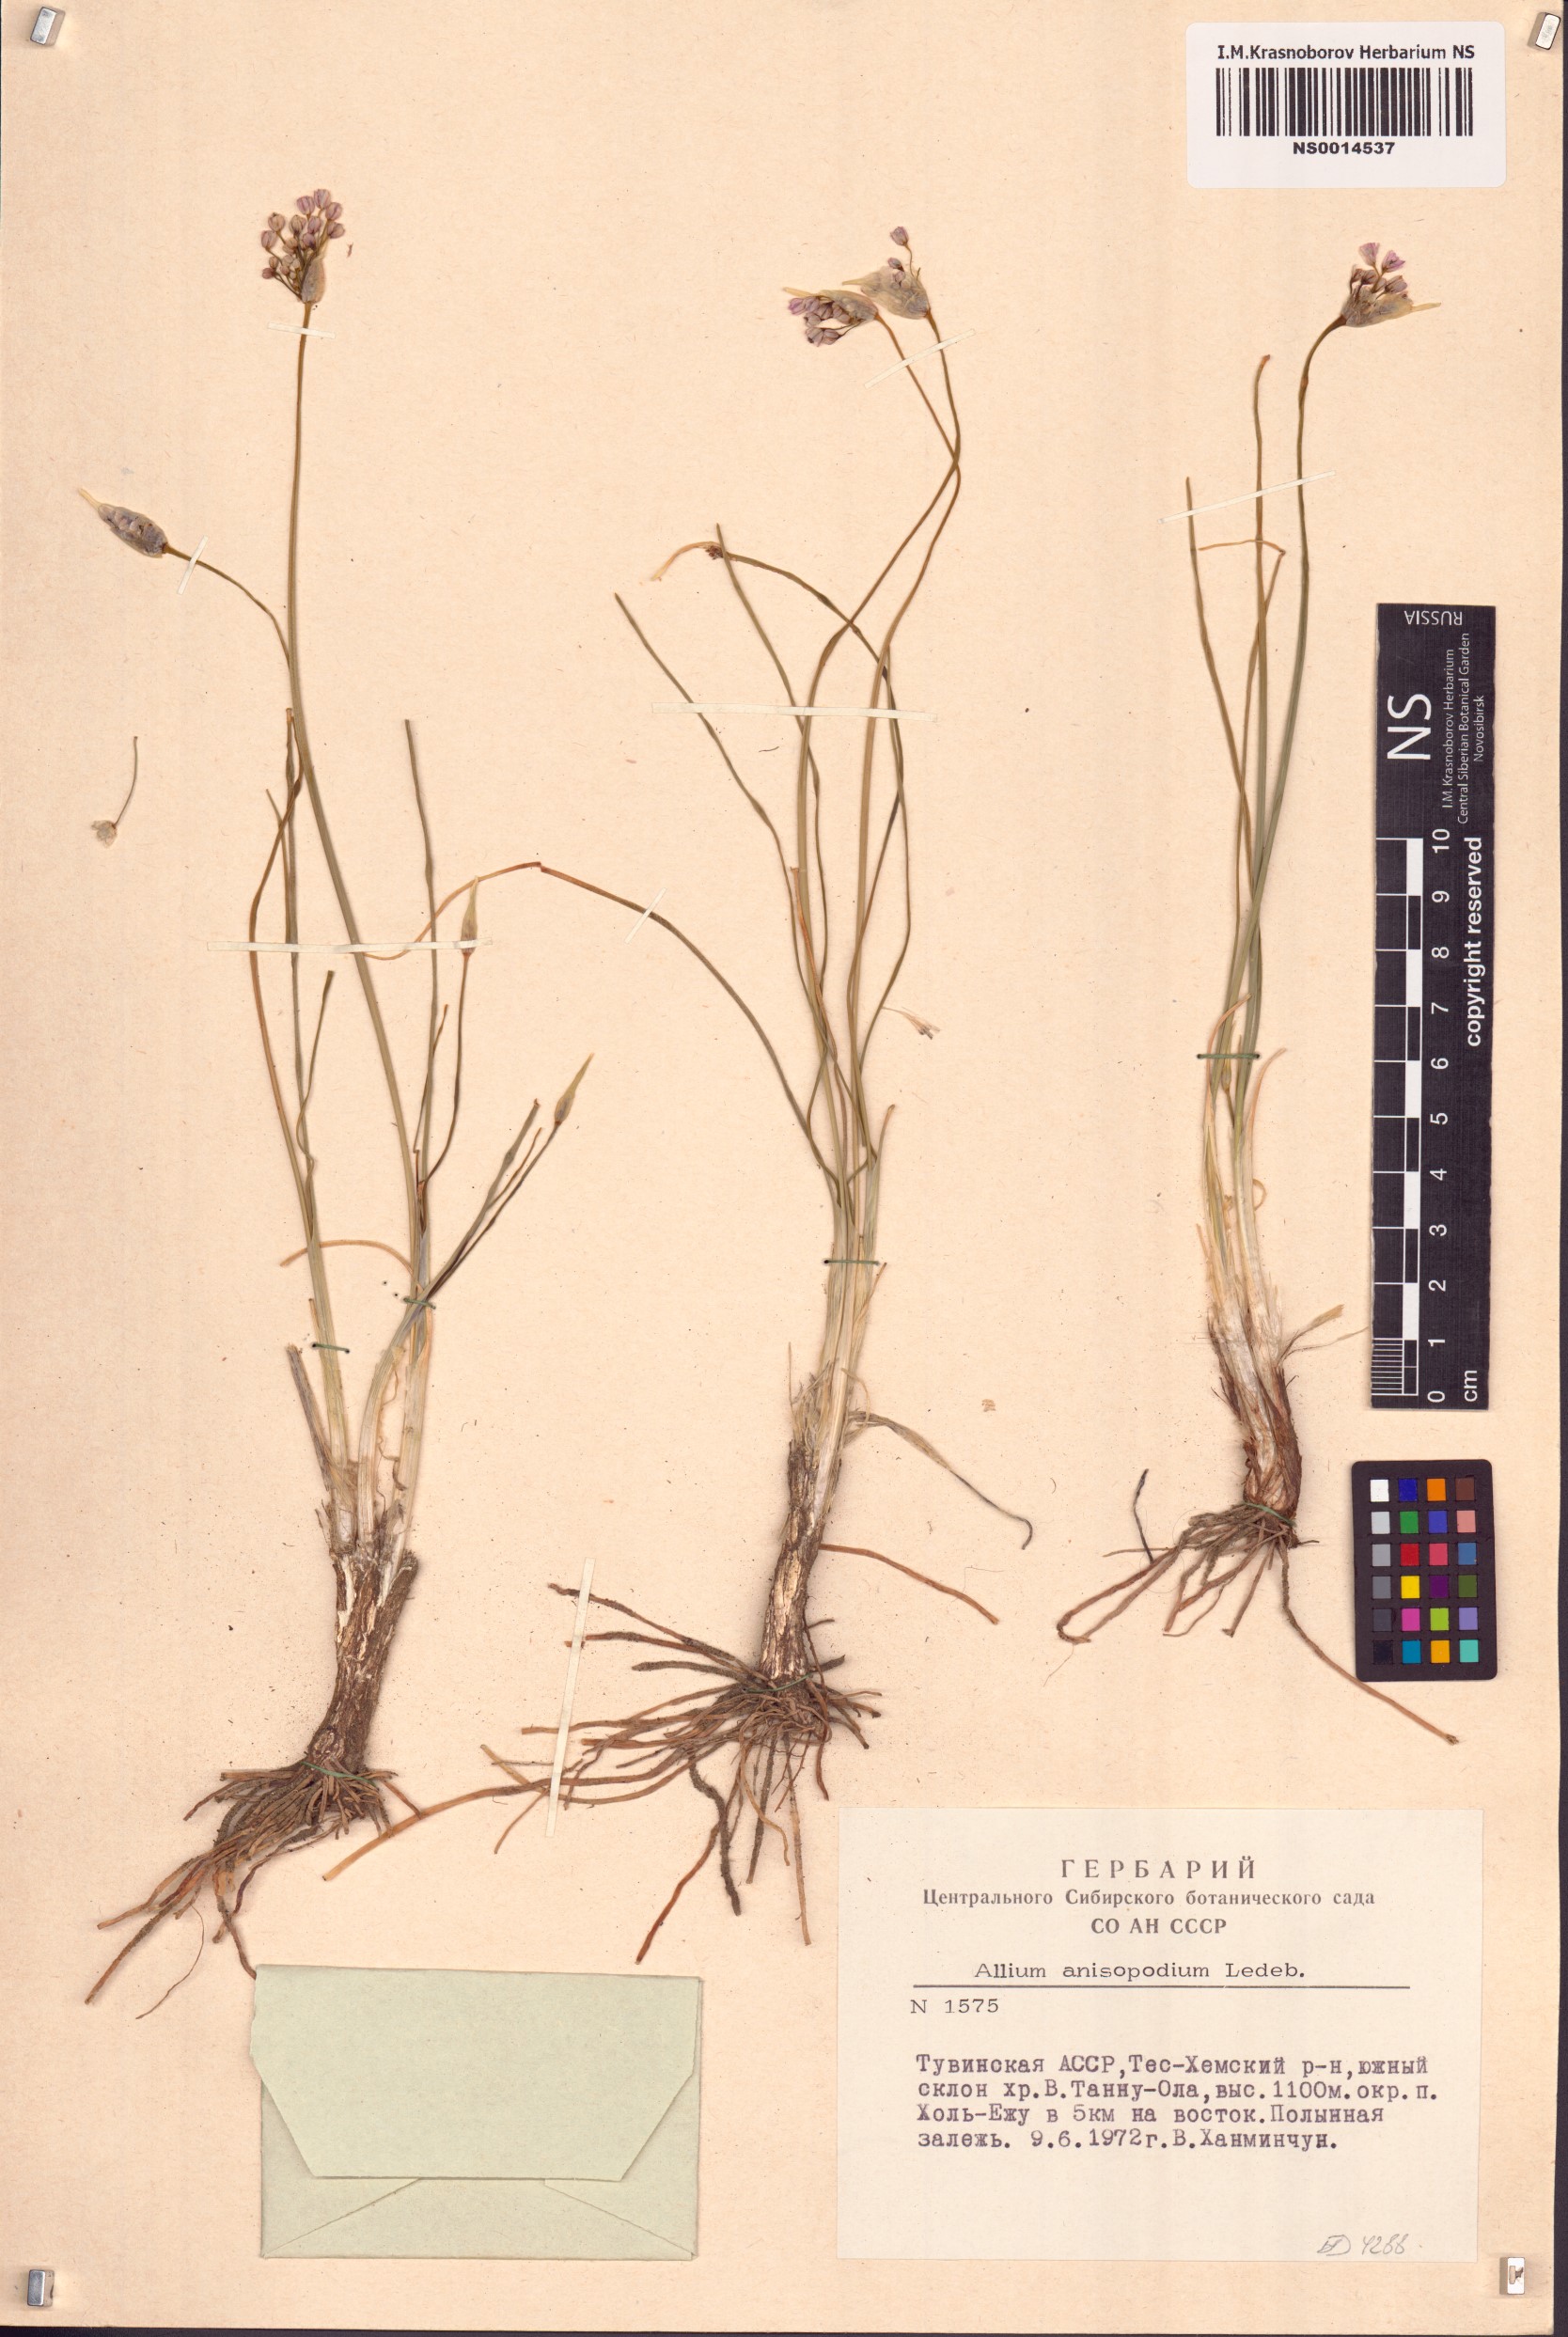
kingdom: Plantae
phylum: Tracheophyta
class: Liliopsida
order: Asparagales
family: Amaryllidaceae
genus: Allium
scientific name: Allium anisopodium
